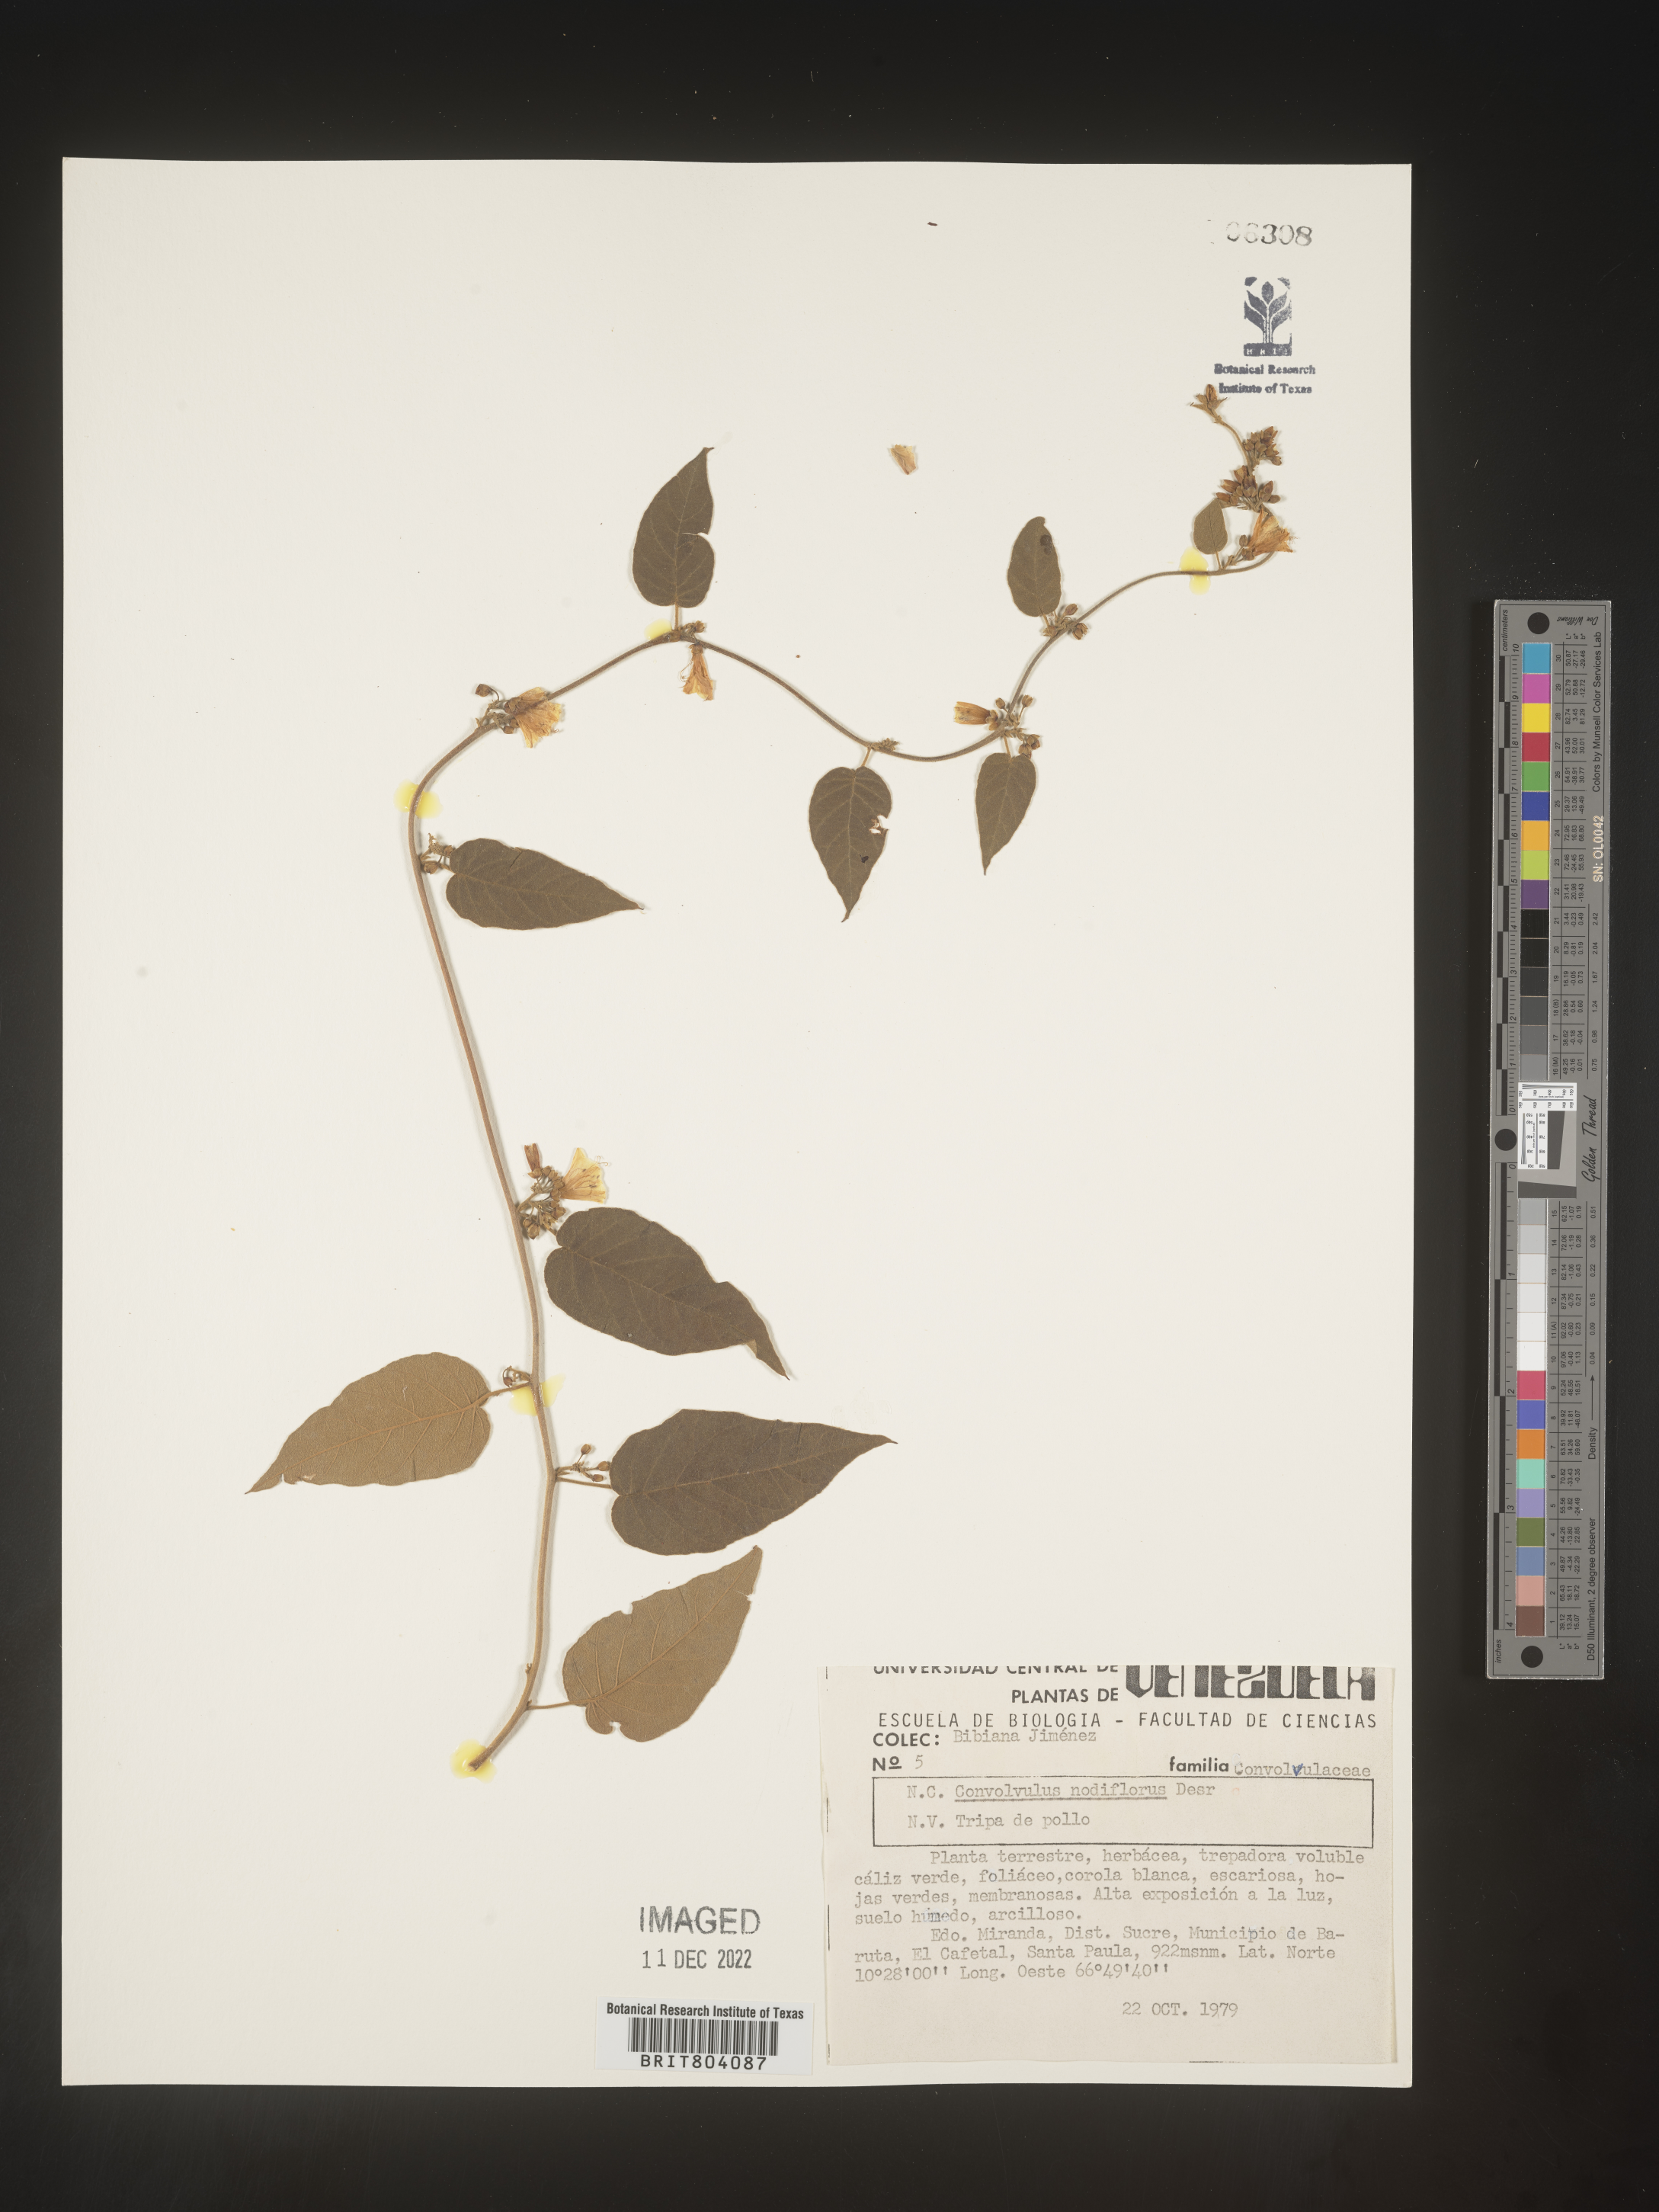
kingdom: Plantae
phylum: Tracheophyta
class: Magnoliopsida
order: Solanales
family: Convolvulaceae
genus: Convolvulus
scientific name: Convolvulus
